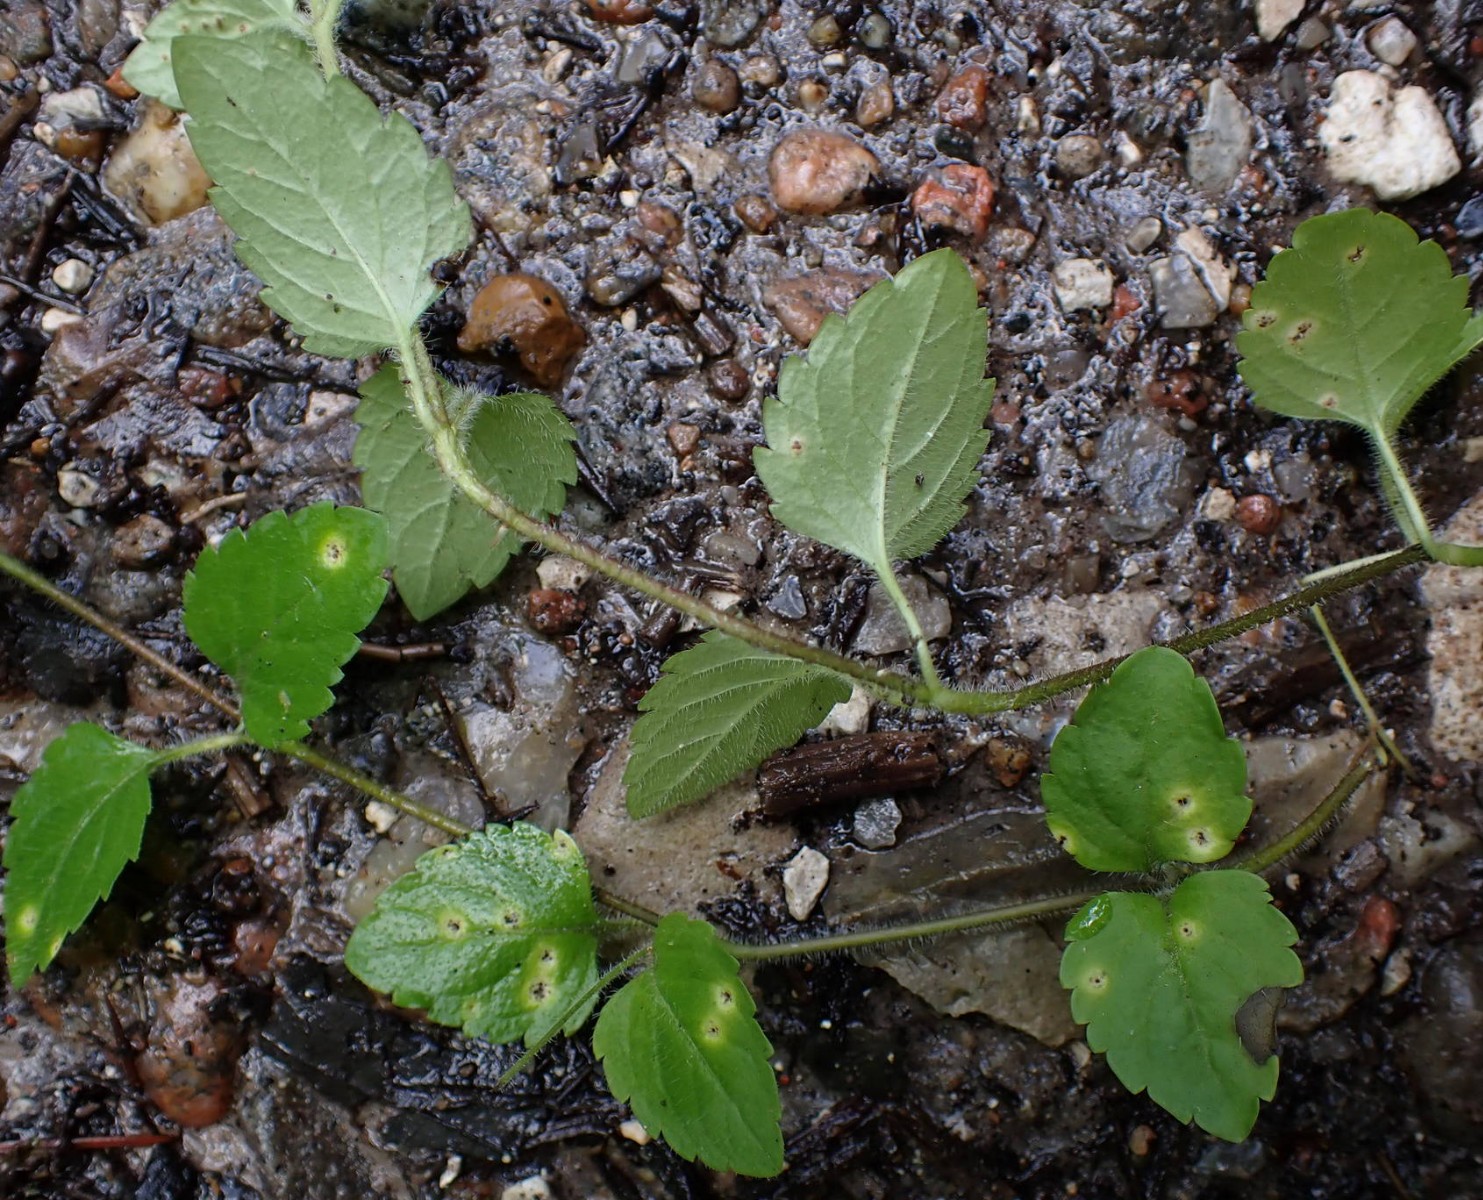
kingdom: Fungi
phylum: Basidiomycota
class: Pucciniomycetes
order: Pucciniales
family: Pucciniaceae
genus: Puccinia
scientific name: Puccinia veronicae
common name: Wood speedwell rust
